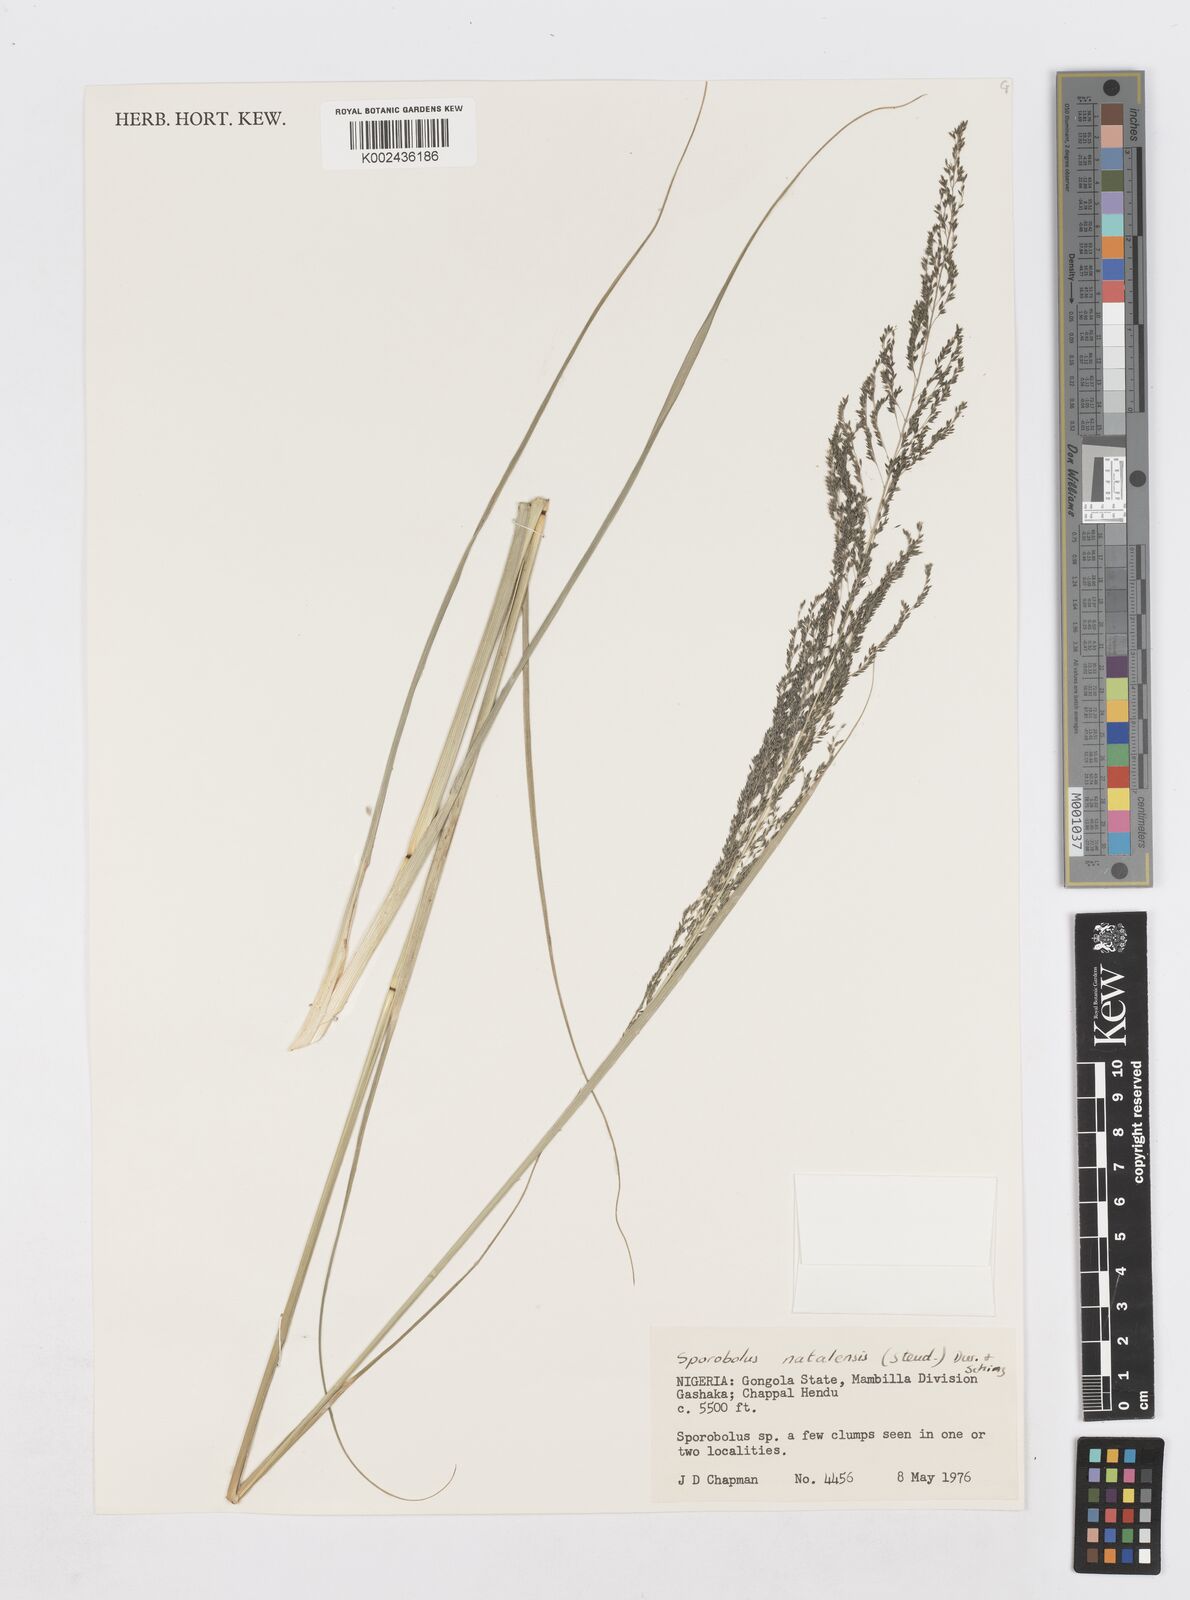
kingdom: Plantae
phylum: Tracheophyta
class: Liliopsida
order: Poales
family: Poaceae
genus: Sporobolus
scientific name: Sporobolus natalensis
